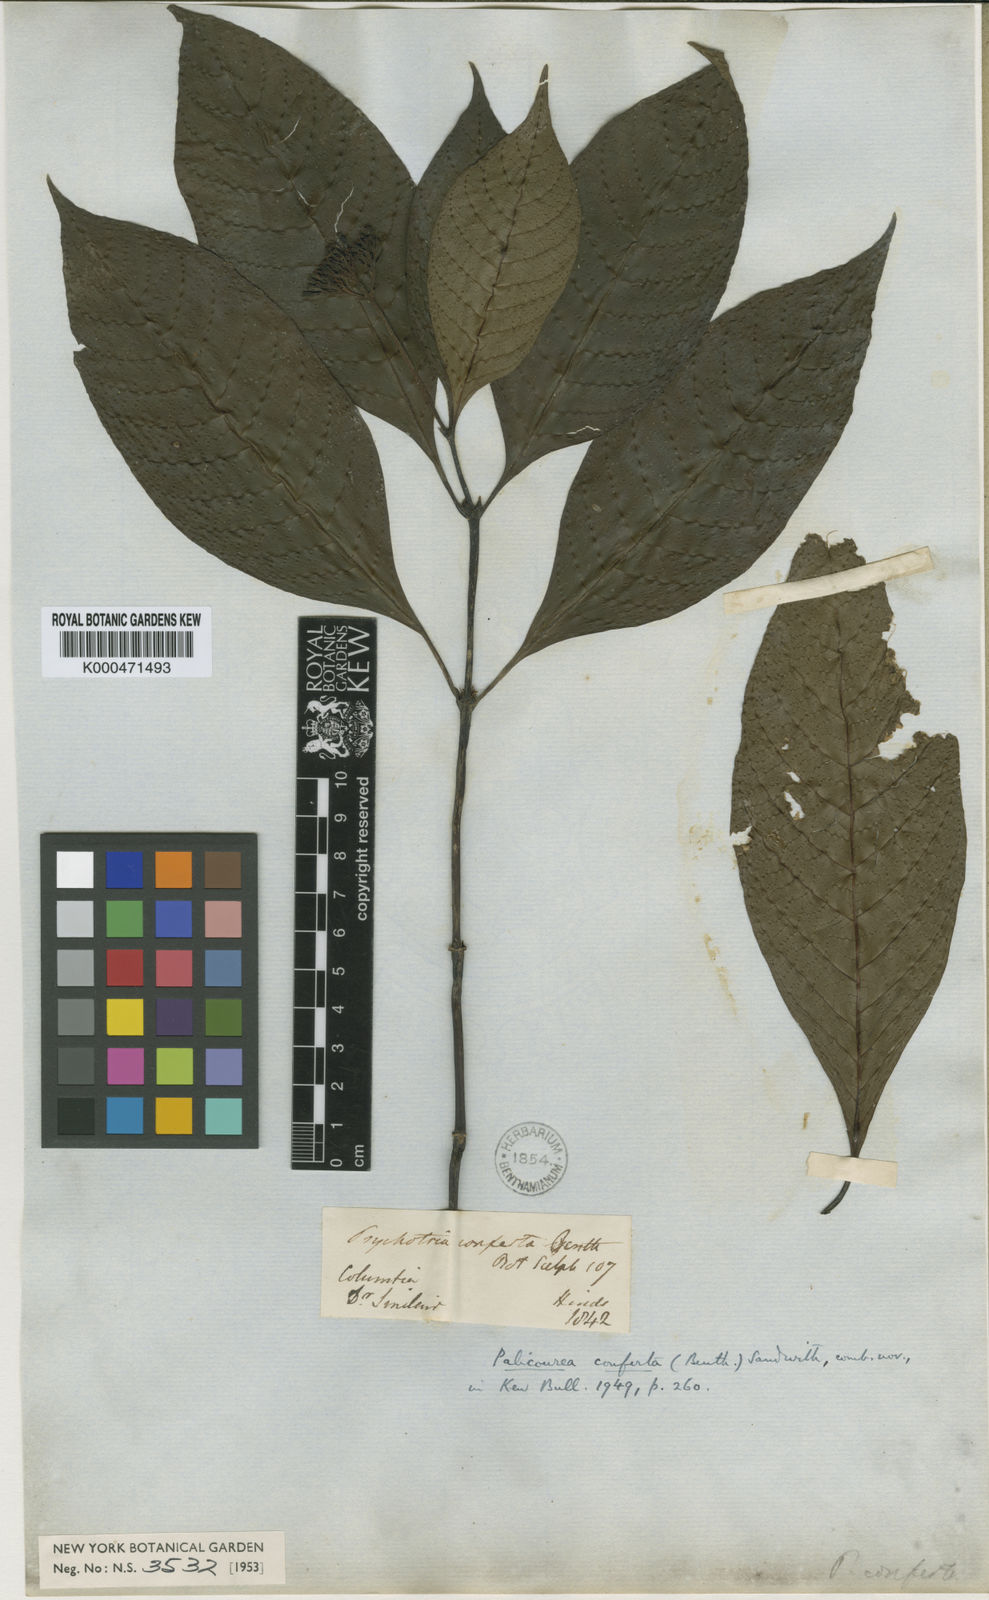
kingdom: Plantae
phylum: Tracheophyta
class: Magnoliopsida
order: Gentianales
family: Rubiaceae
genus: Palicourea
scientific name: Palicourea conferta
